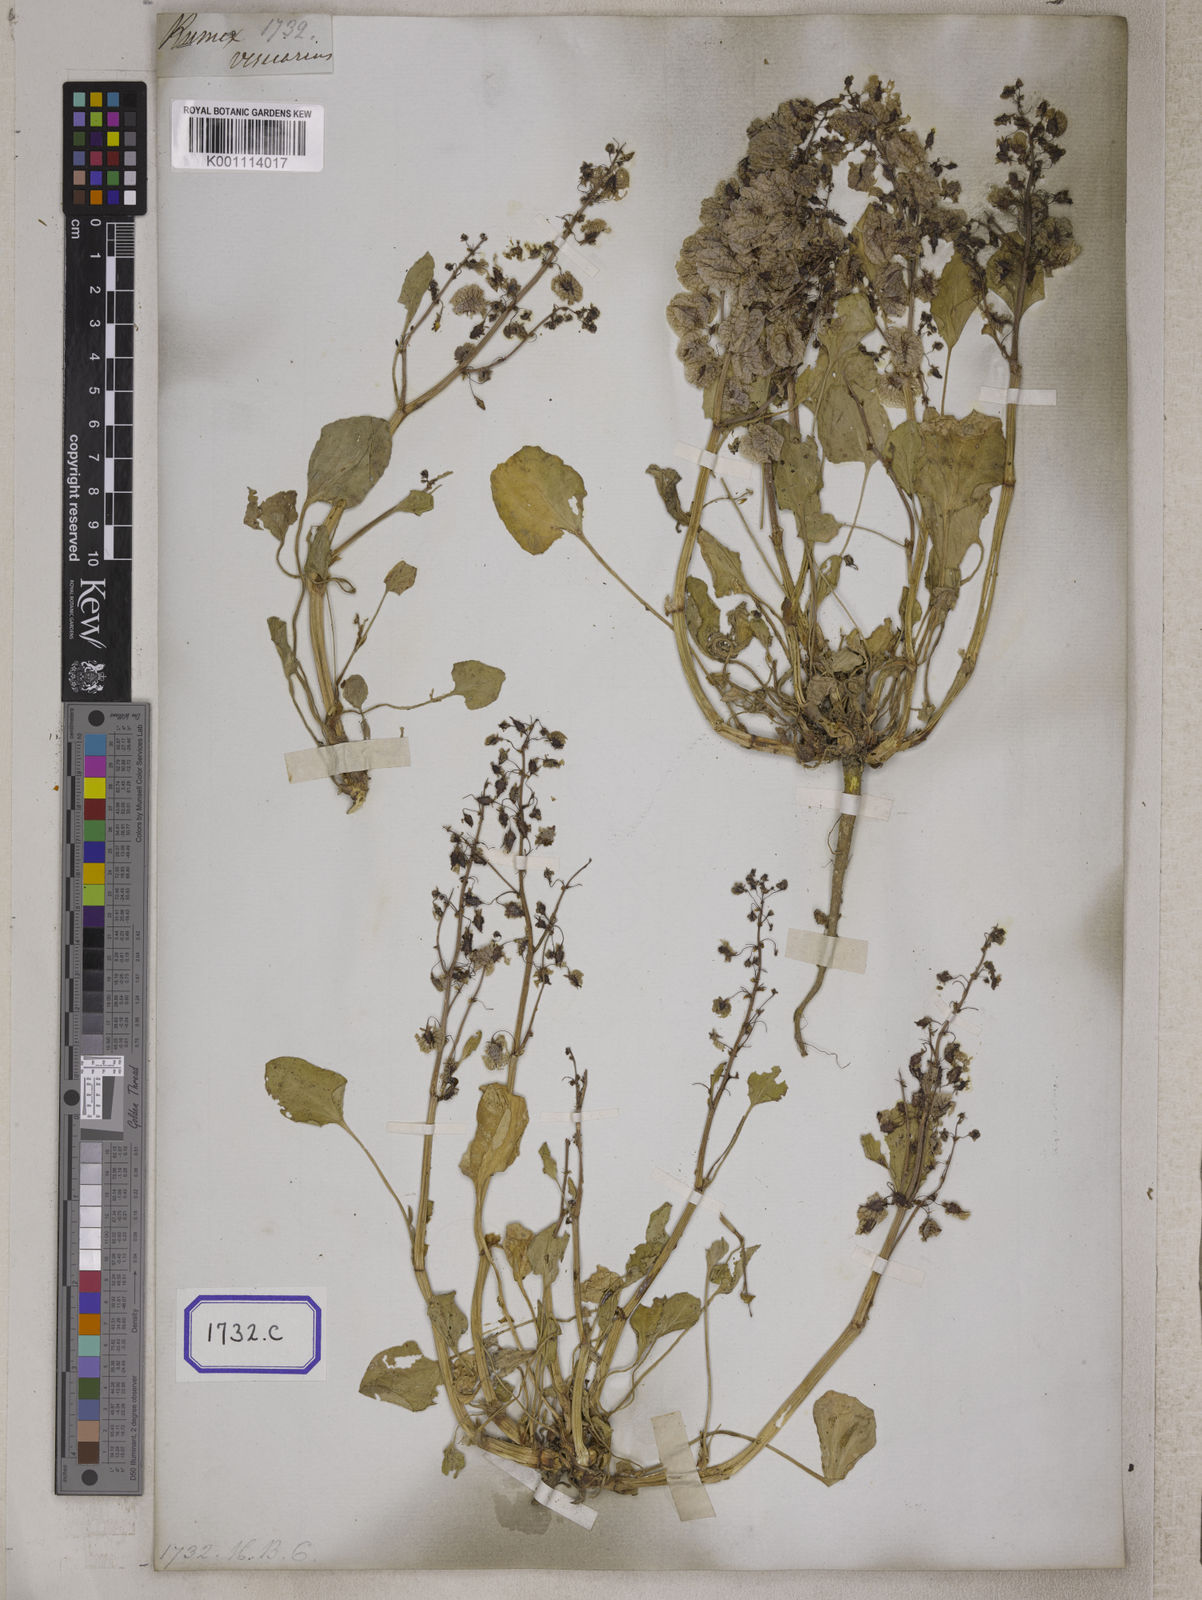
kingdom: Plantae
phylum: Tracheophyta
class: Magnoliopsida
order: Caryophyllales
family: Polygonaceae
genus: Rumex
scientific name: Rumex
